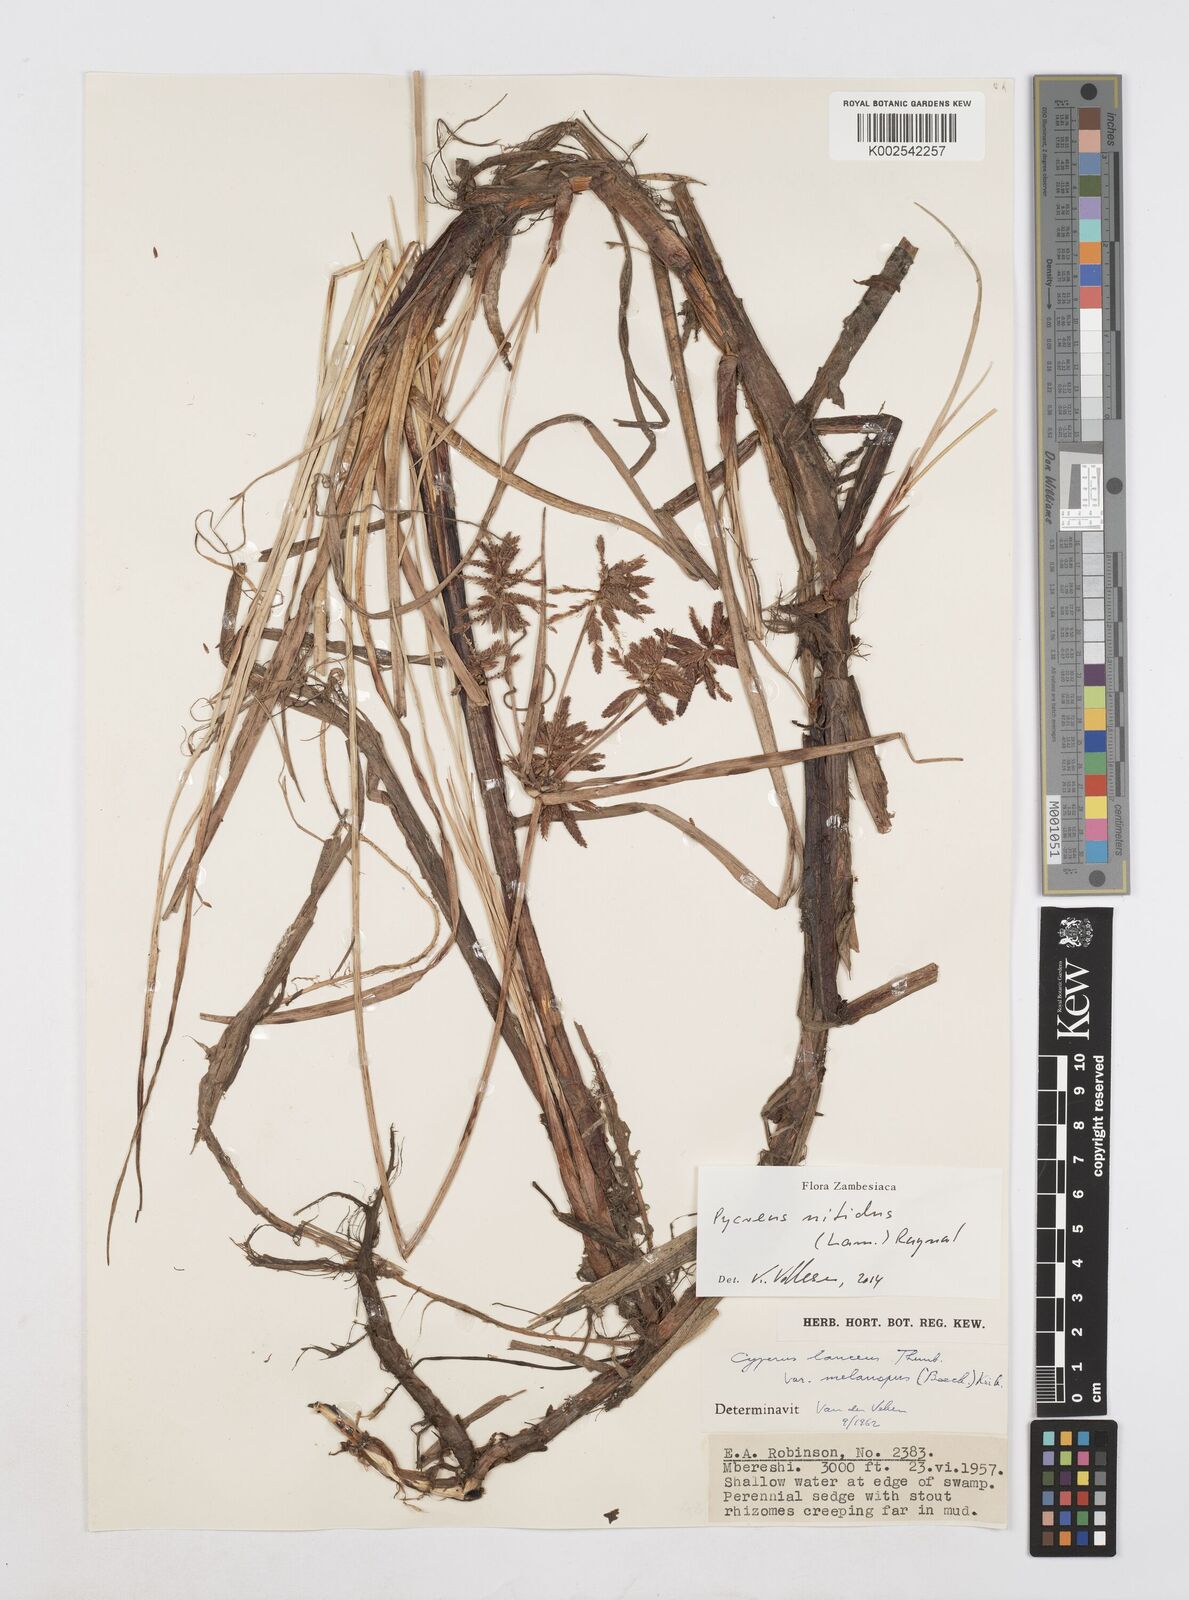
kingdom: Plantae
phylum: Tracheophyta
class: Liliopsida
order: Poales
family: Cyperaceae
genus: Cyperus
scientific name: Cyperus nitidus
